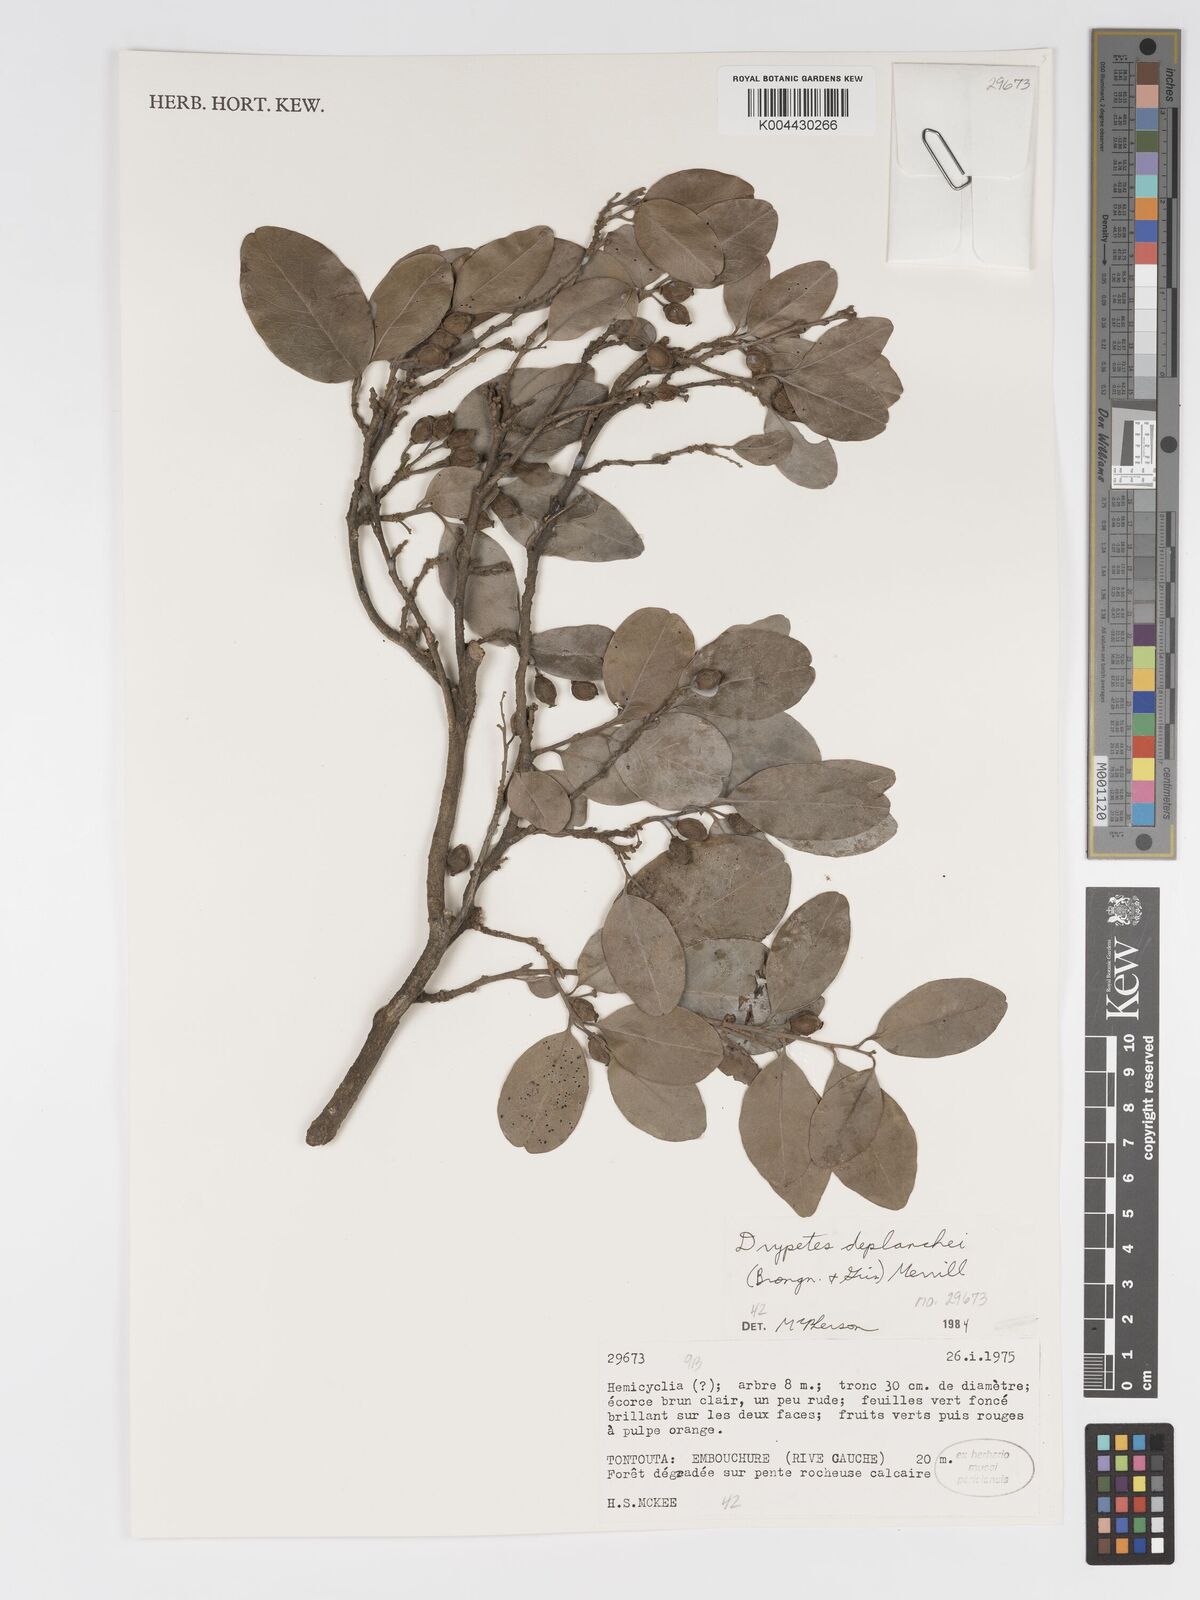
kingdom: Plantae
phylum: Tracheophyta
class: Magnoliopsida
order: Malpighiales
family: Putranjivaceae
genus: Drypetes
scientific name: Drypetes deplanchei
